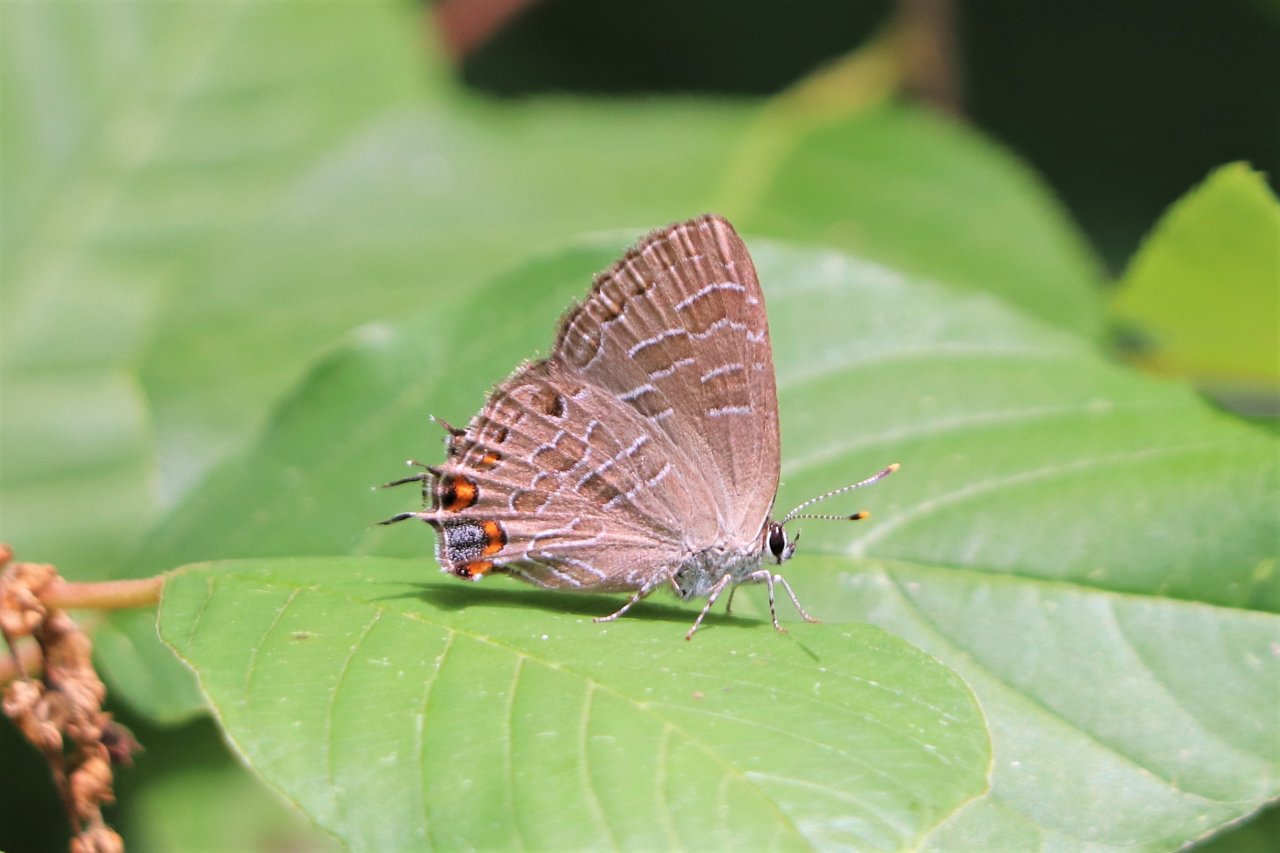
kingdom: Animalia
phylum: Arthropoda
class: Insecta
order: Lepidoptera
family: Lycaenidae
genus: Satyrium
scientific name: Satyrium liparops
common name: Striped Hairstreak
